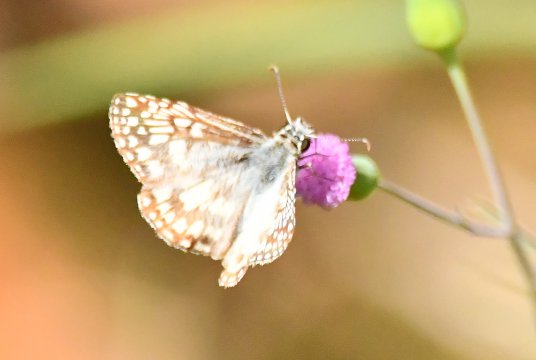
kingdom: Animalia
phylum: Arthropoda
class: Insecta
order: Lepidoptera
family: Hesperiidae
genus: Pyrgus
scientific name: Pyrgus oileus
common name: Tropical Checkered-Skipper
